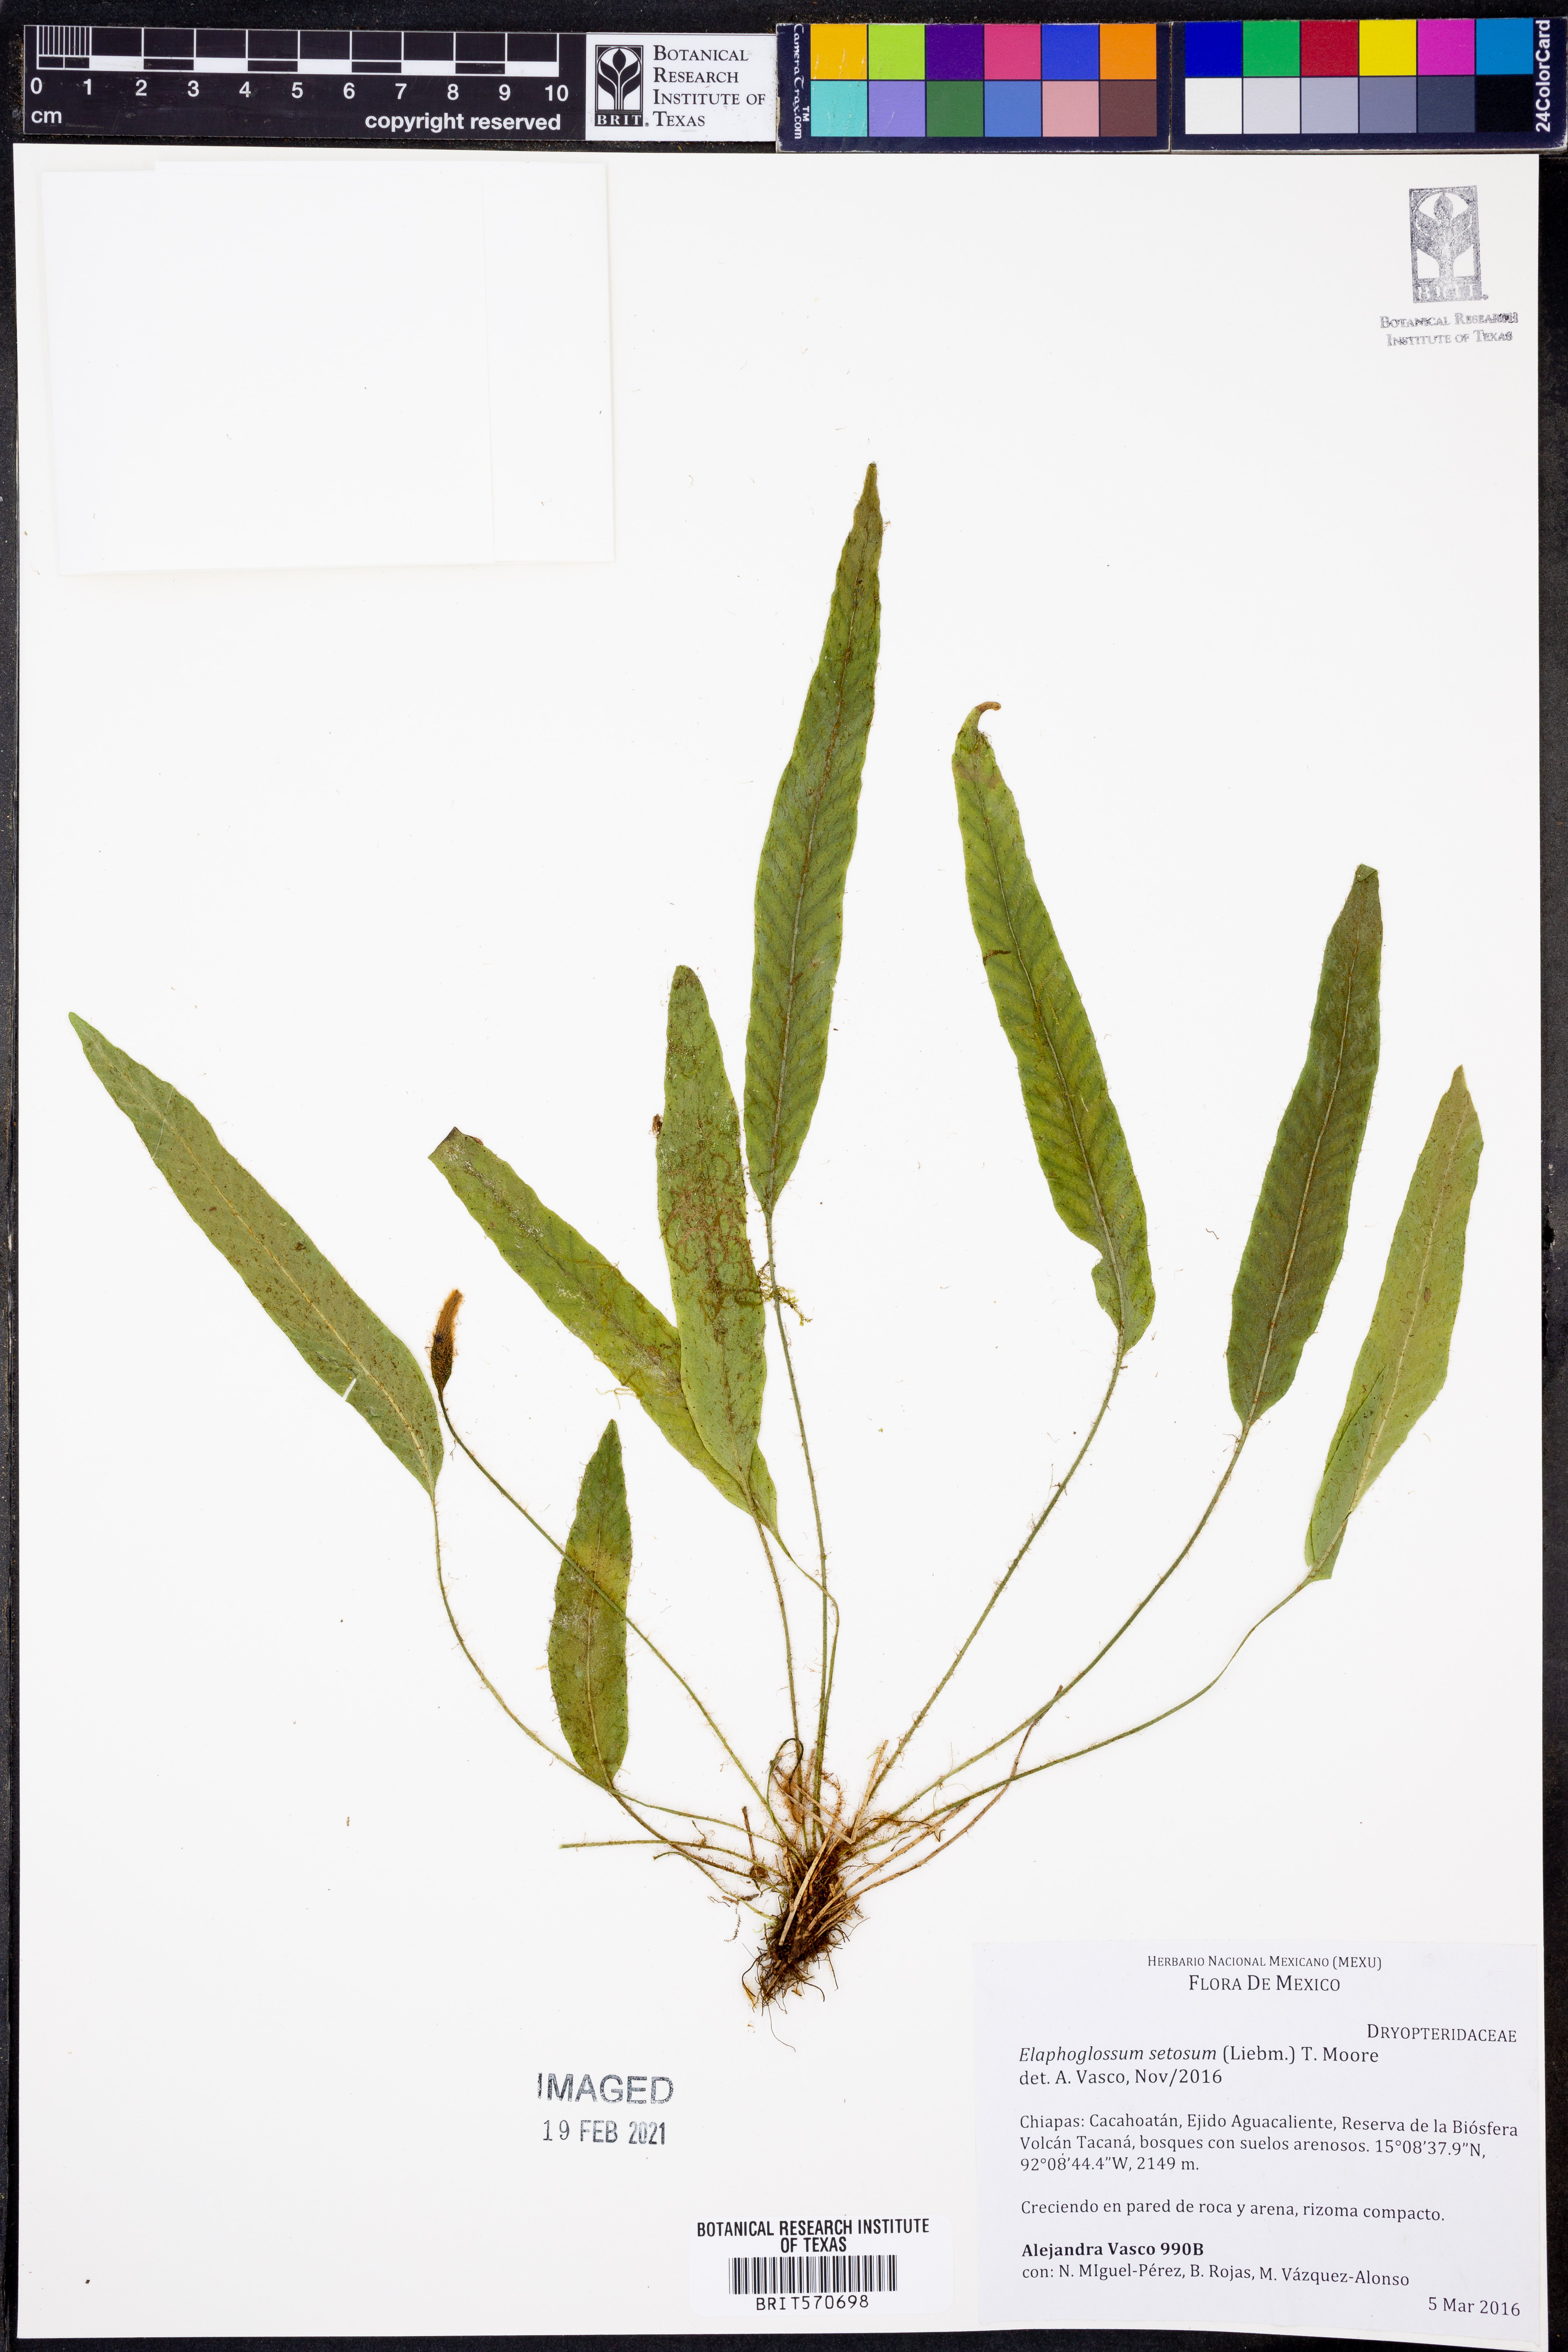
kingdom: Plantae
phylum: Tracheophyta
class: Polypodiopsida
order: Polypodiales
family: Dryopteridaceae
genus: Elaphoglossum
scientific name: Elaphoglossum setosum
